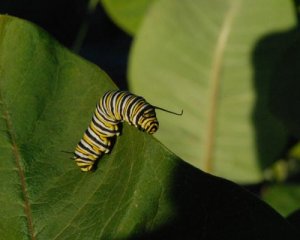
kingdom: Animalia
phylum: Arthropoda
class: Insecta
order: Lepidoptera
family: Nymphalidae
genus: Danaus
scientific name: Danaus plexippus
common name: Monarch
